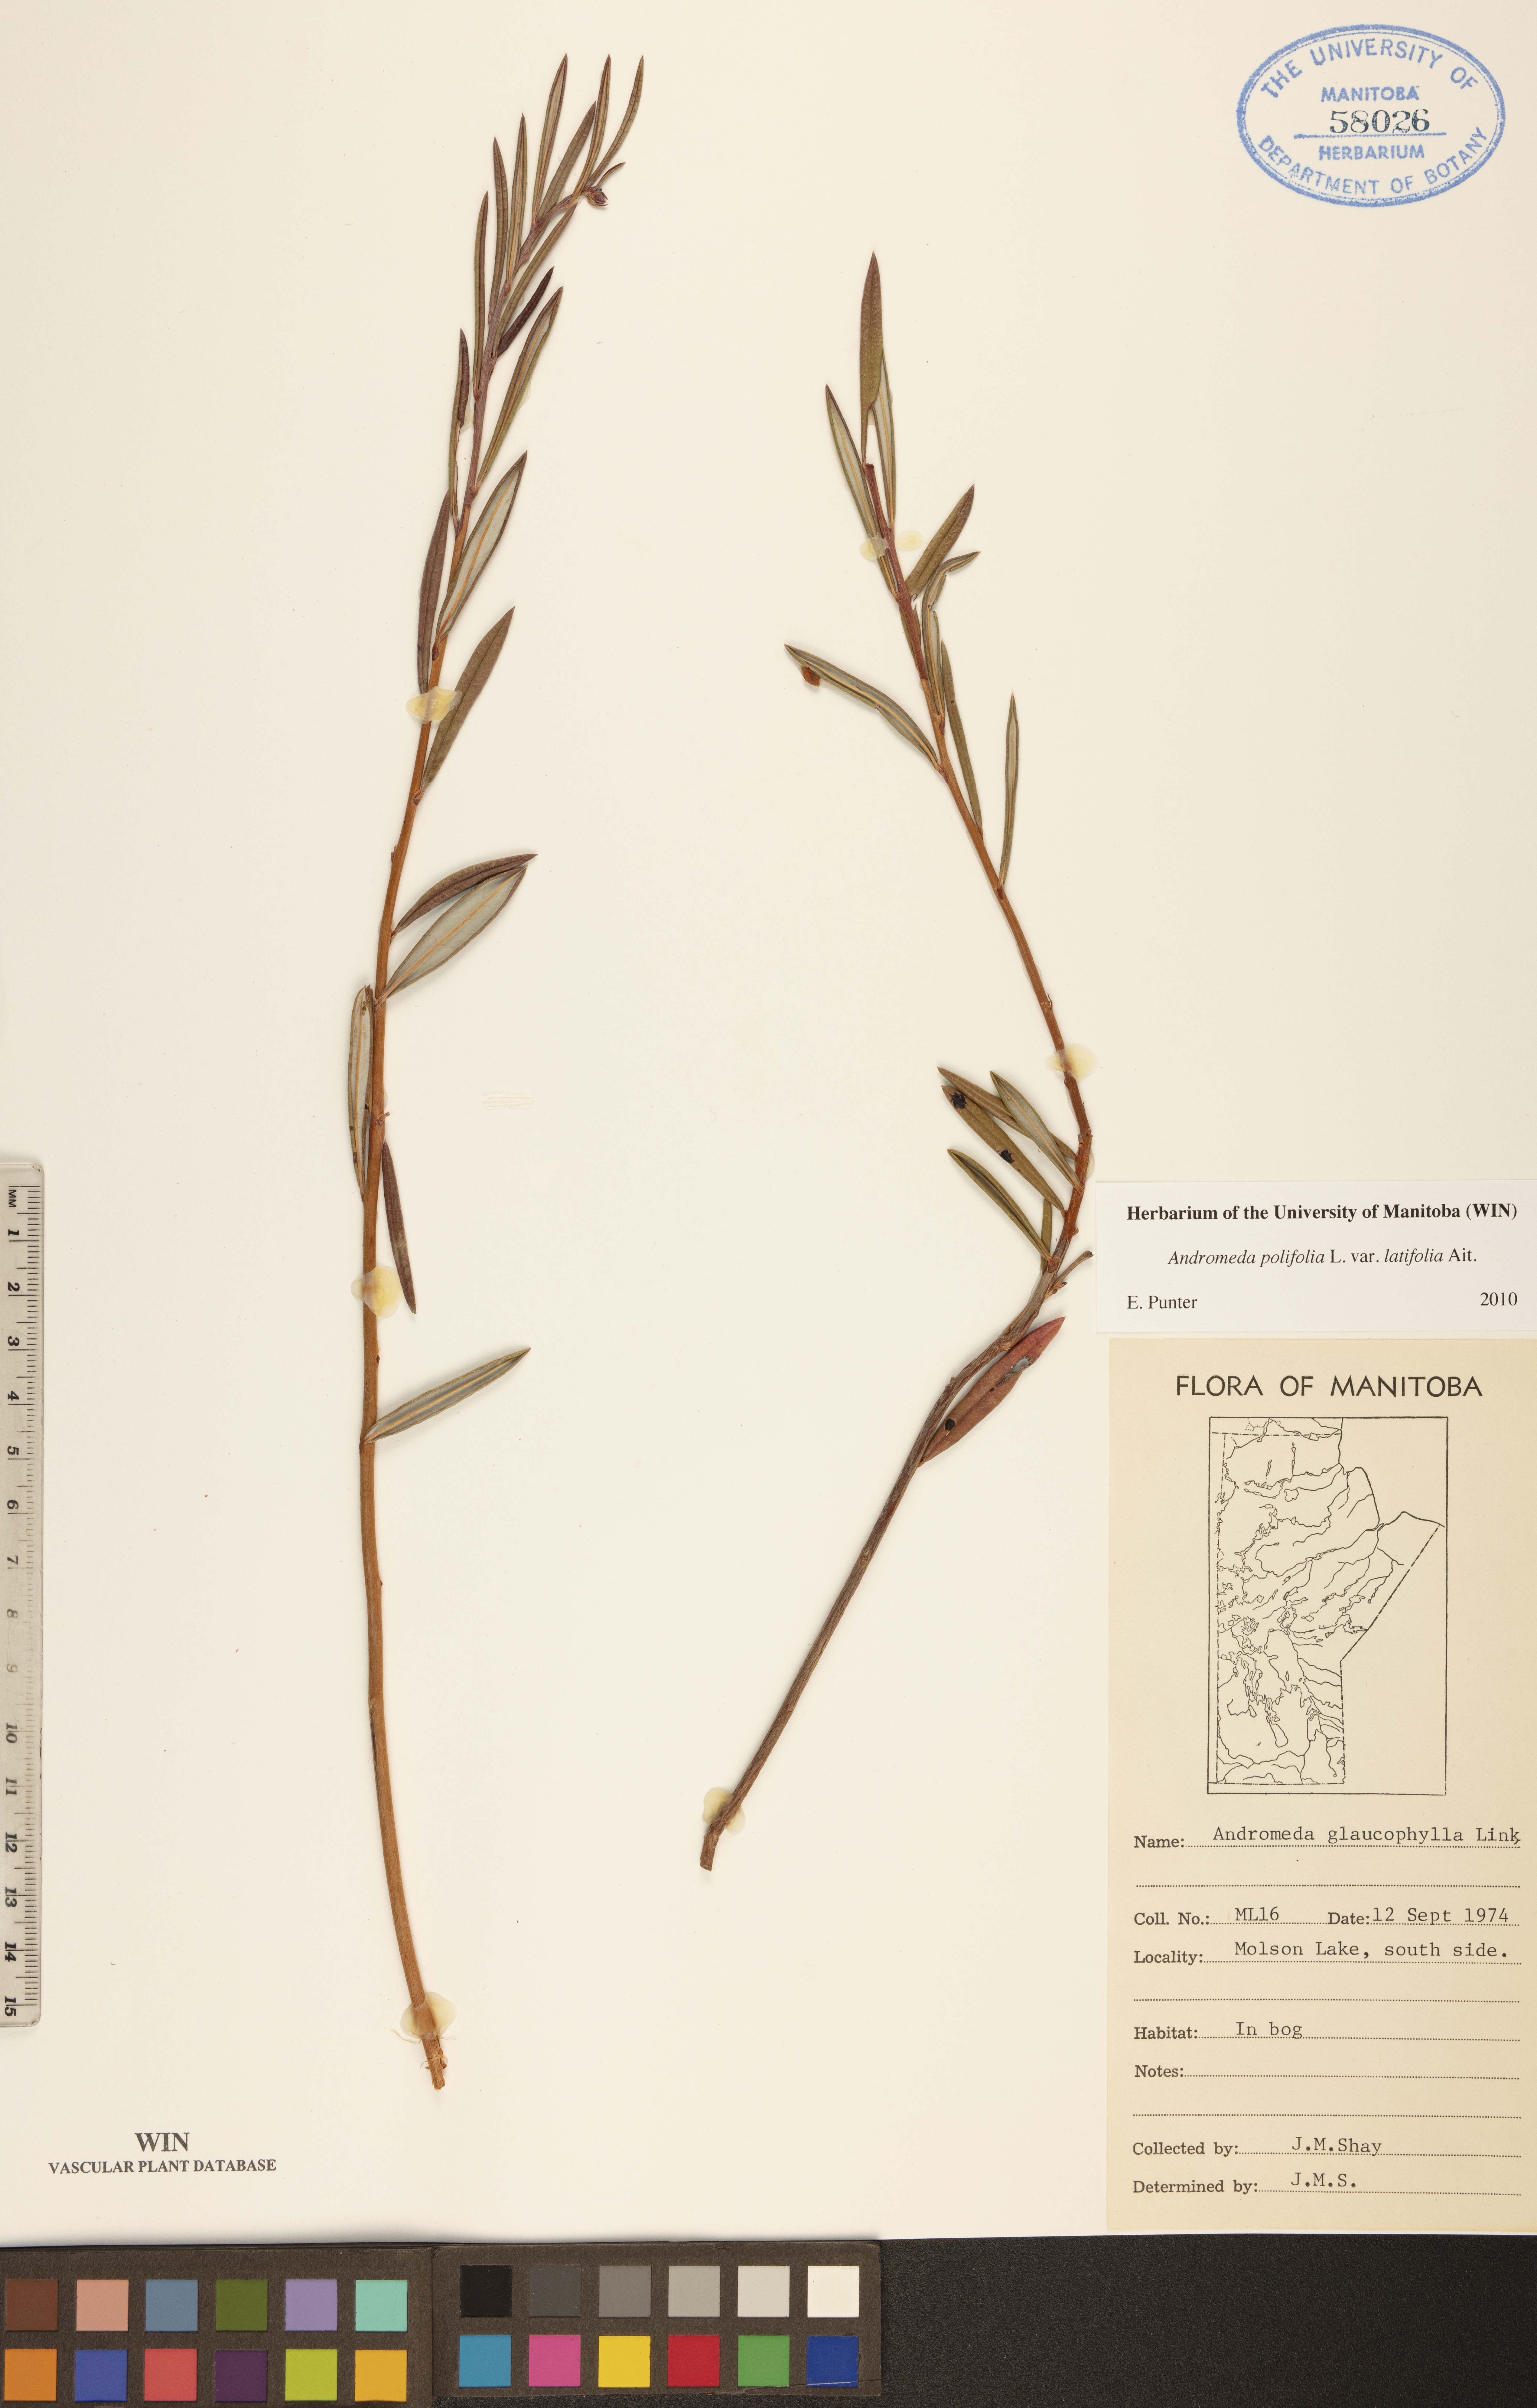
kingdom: Plantae
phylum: Tracheophyta
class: Magnoliopsida
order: Ericales
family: Ericaceae
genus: Andromeda
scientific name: Andromeda polifolia
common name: Bog-rosemary
